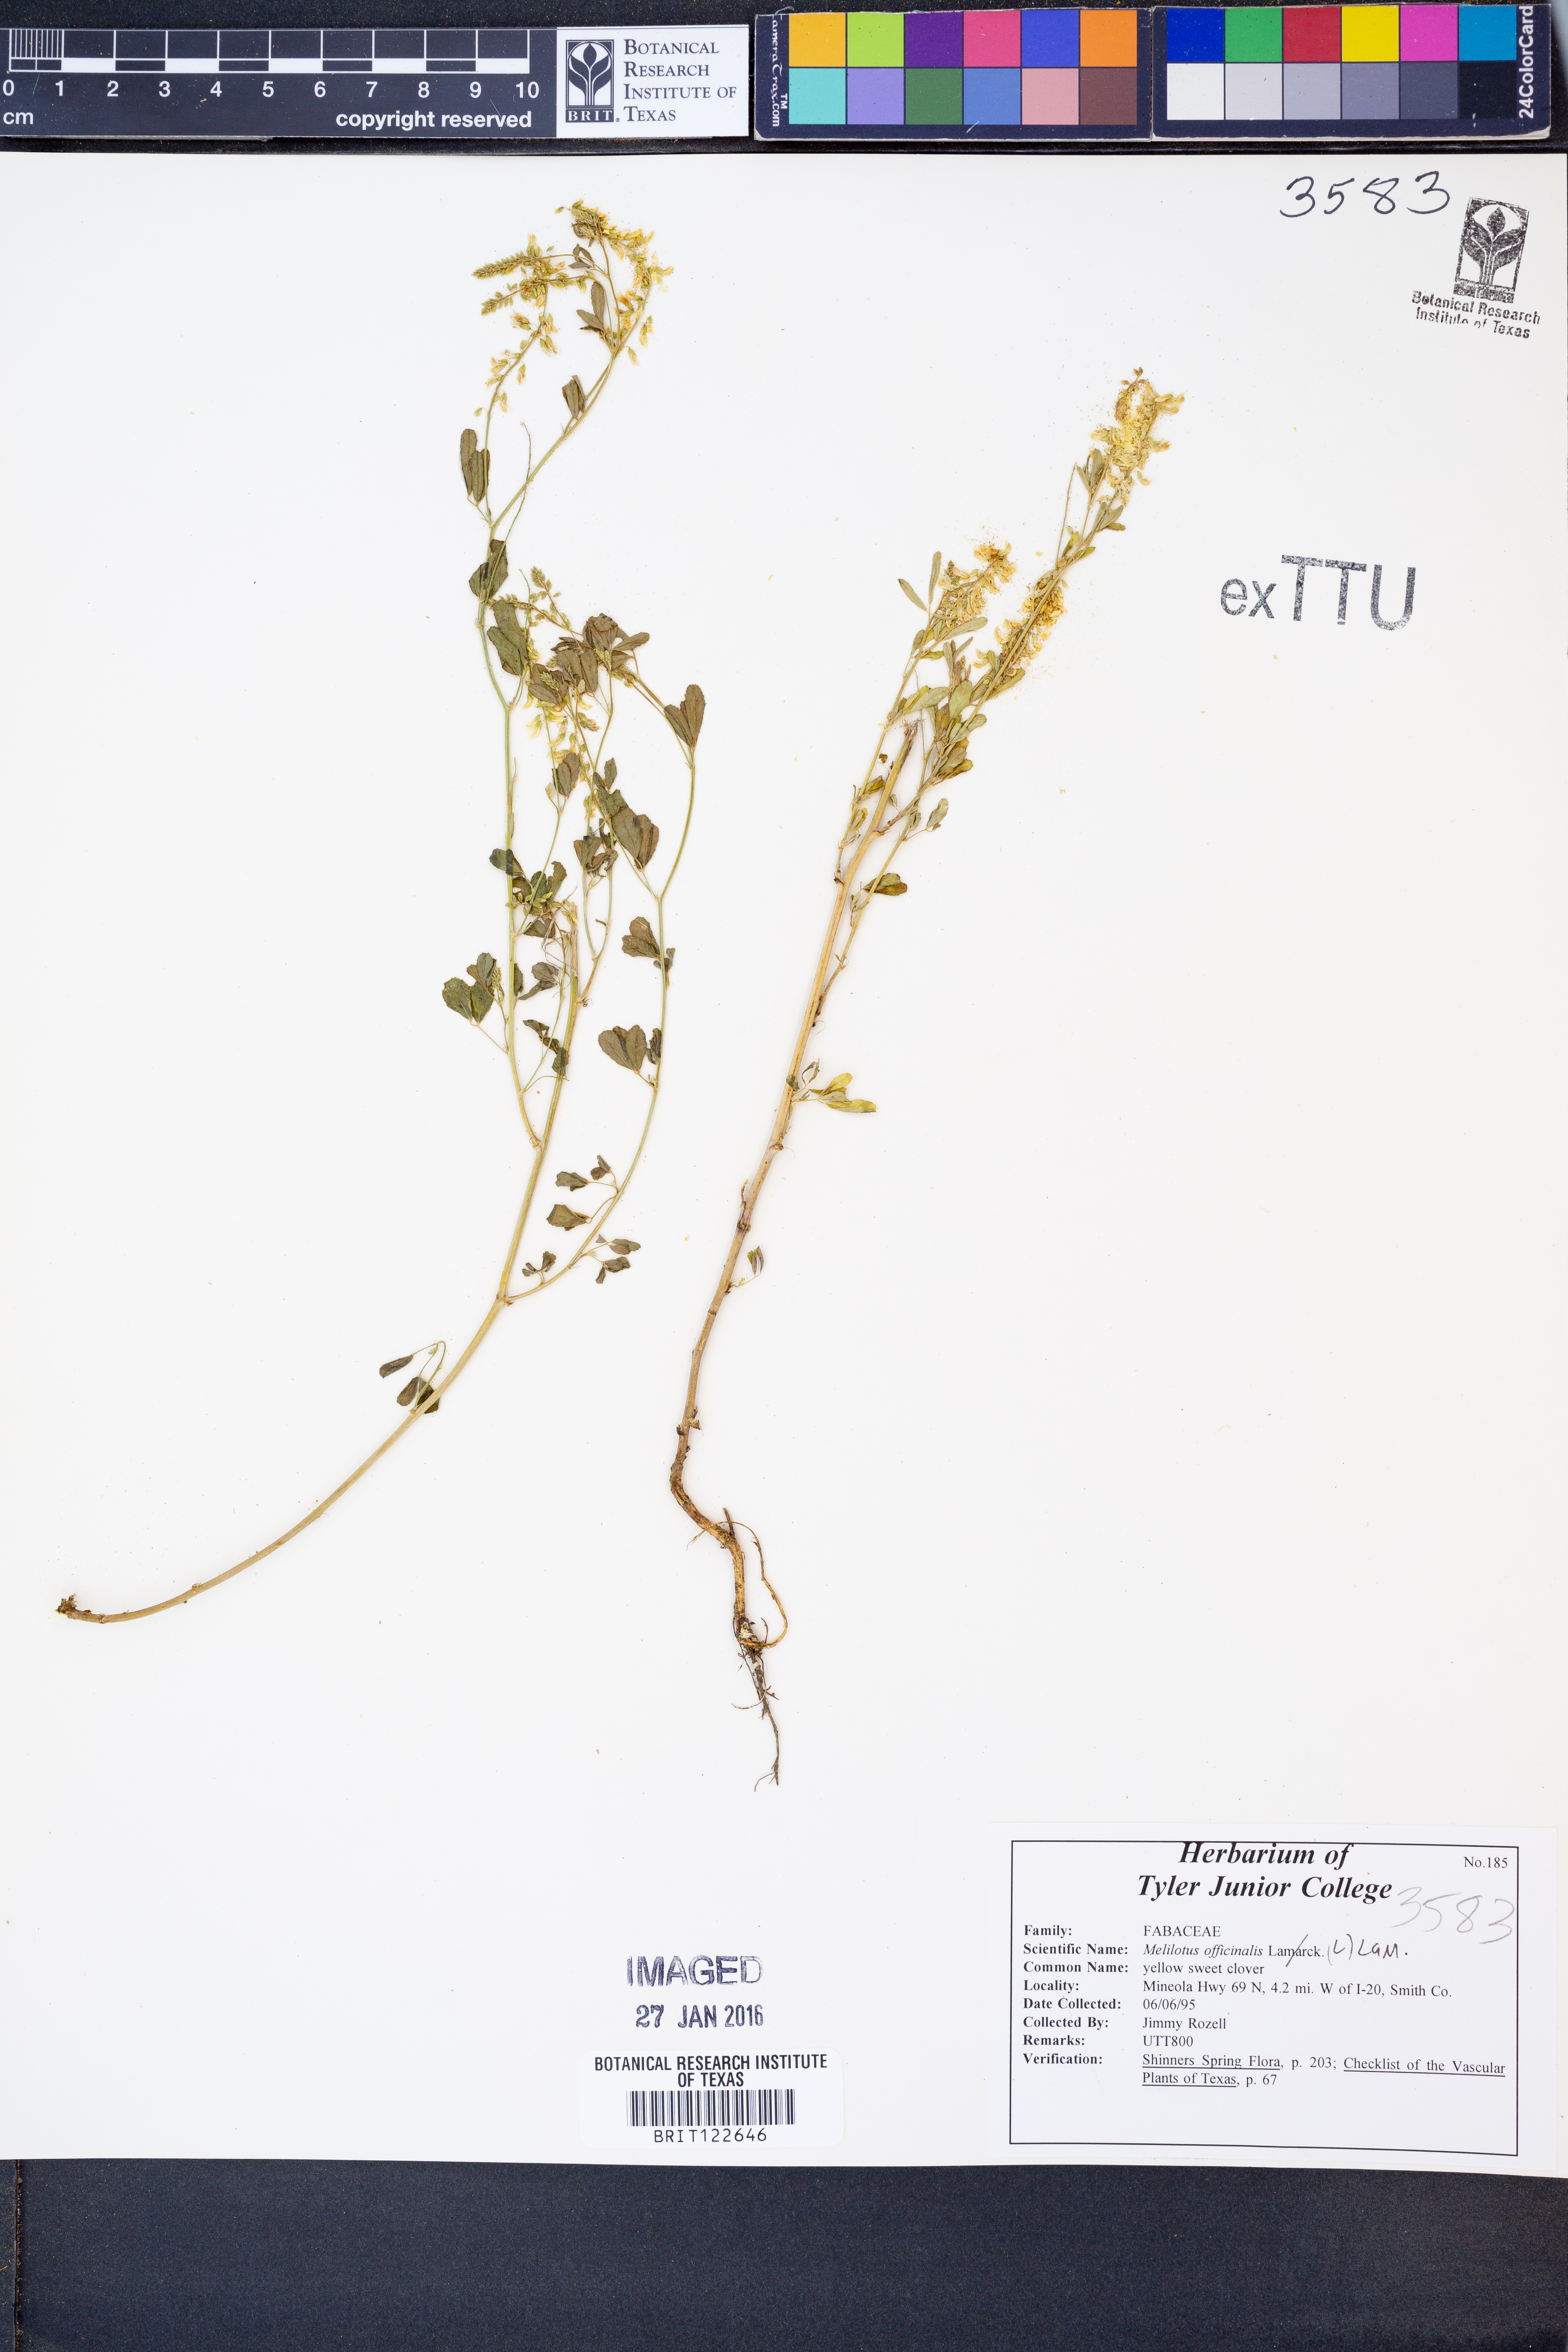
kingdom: Plantae
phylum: Tracheophyta
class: Magnoliopsida
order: Fabales
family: Fabaceae
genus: Melilotus
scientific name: Melilotus officinalis
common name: Sweetclover
